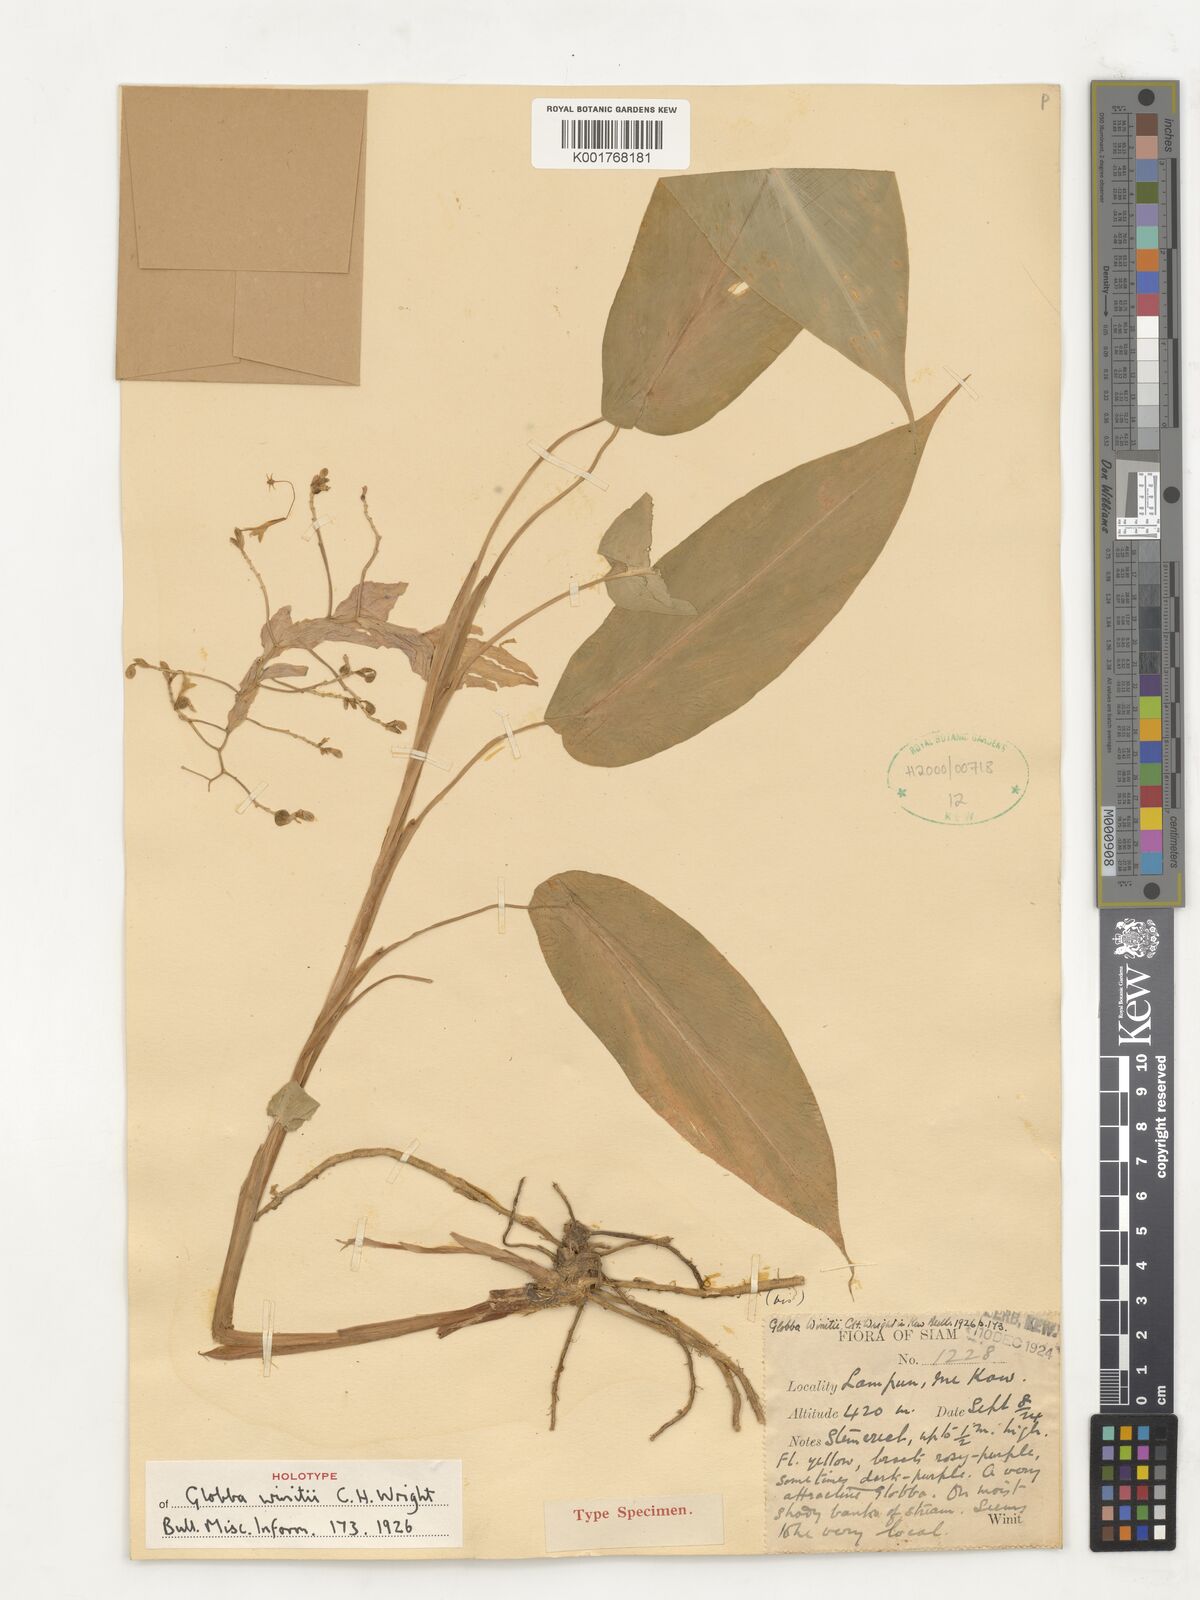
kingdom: Plantae
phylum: Tracheophyta
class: Liliopsida
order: Zingiberales
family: Zingiberaceae
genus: Globba
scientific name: Globba winitii
